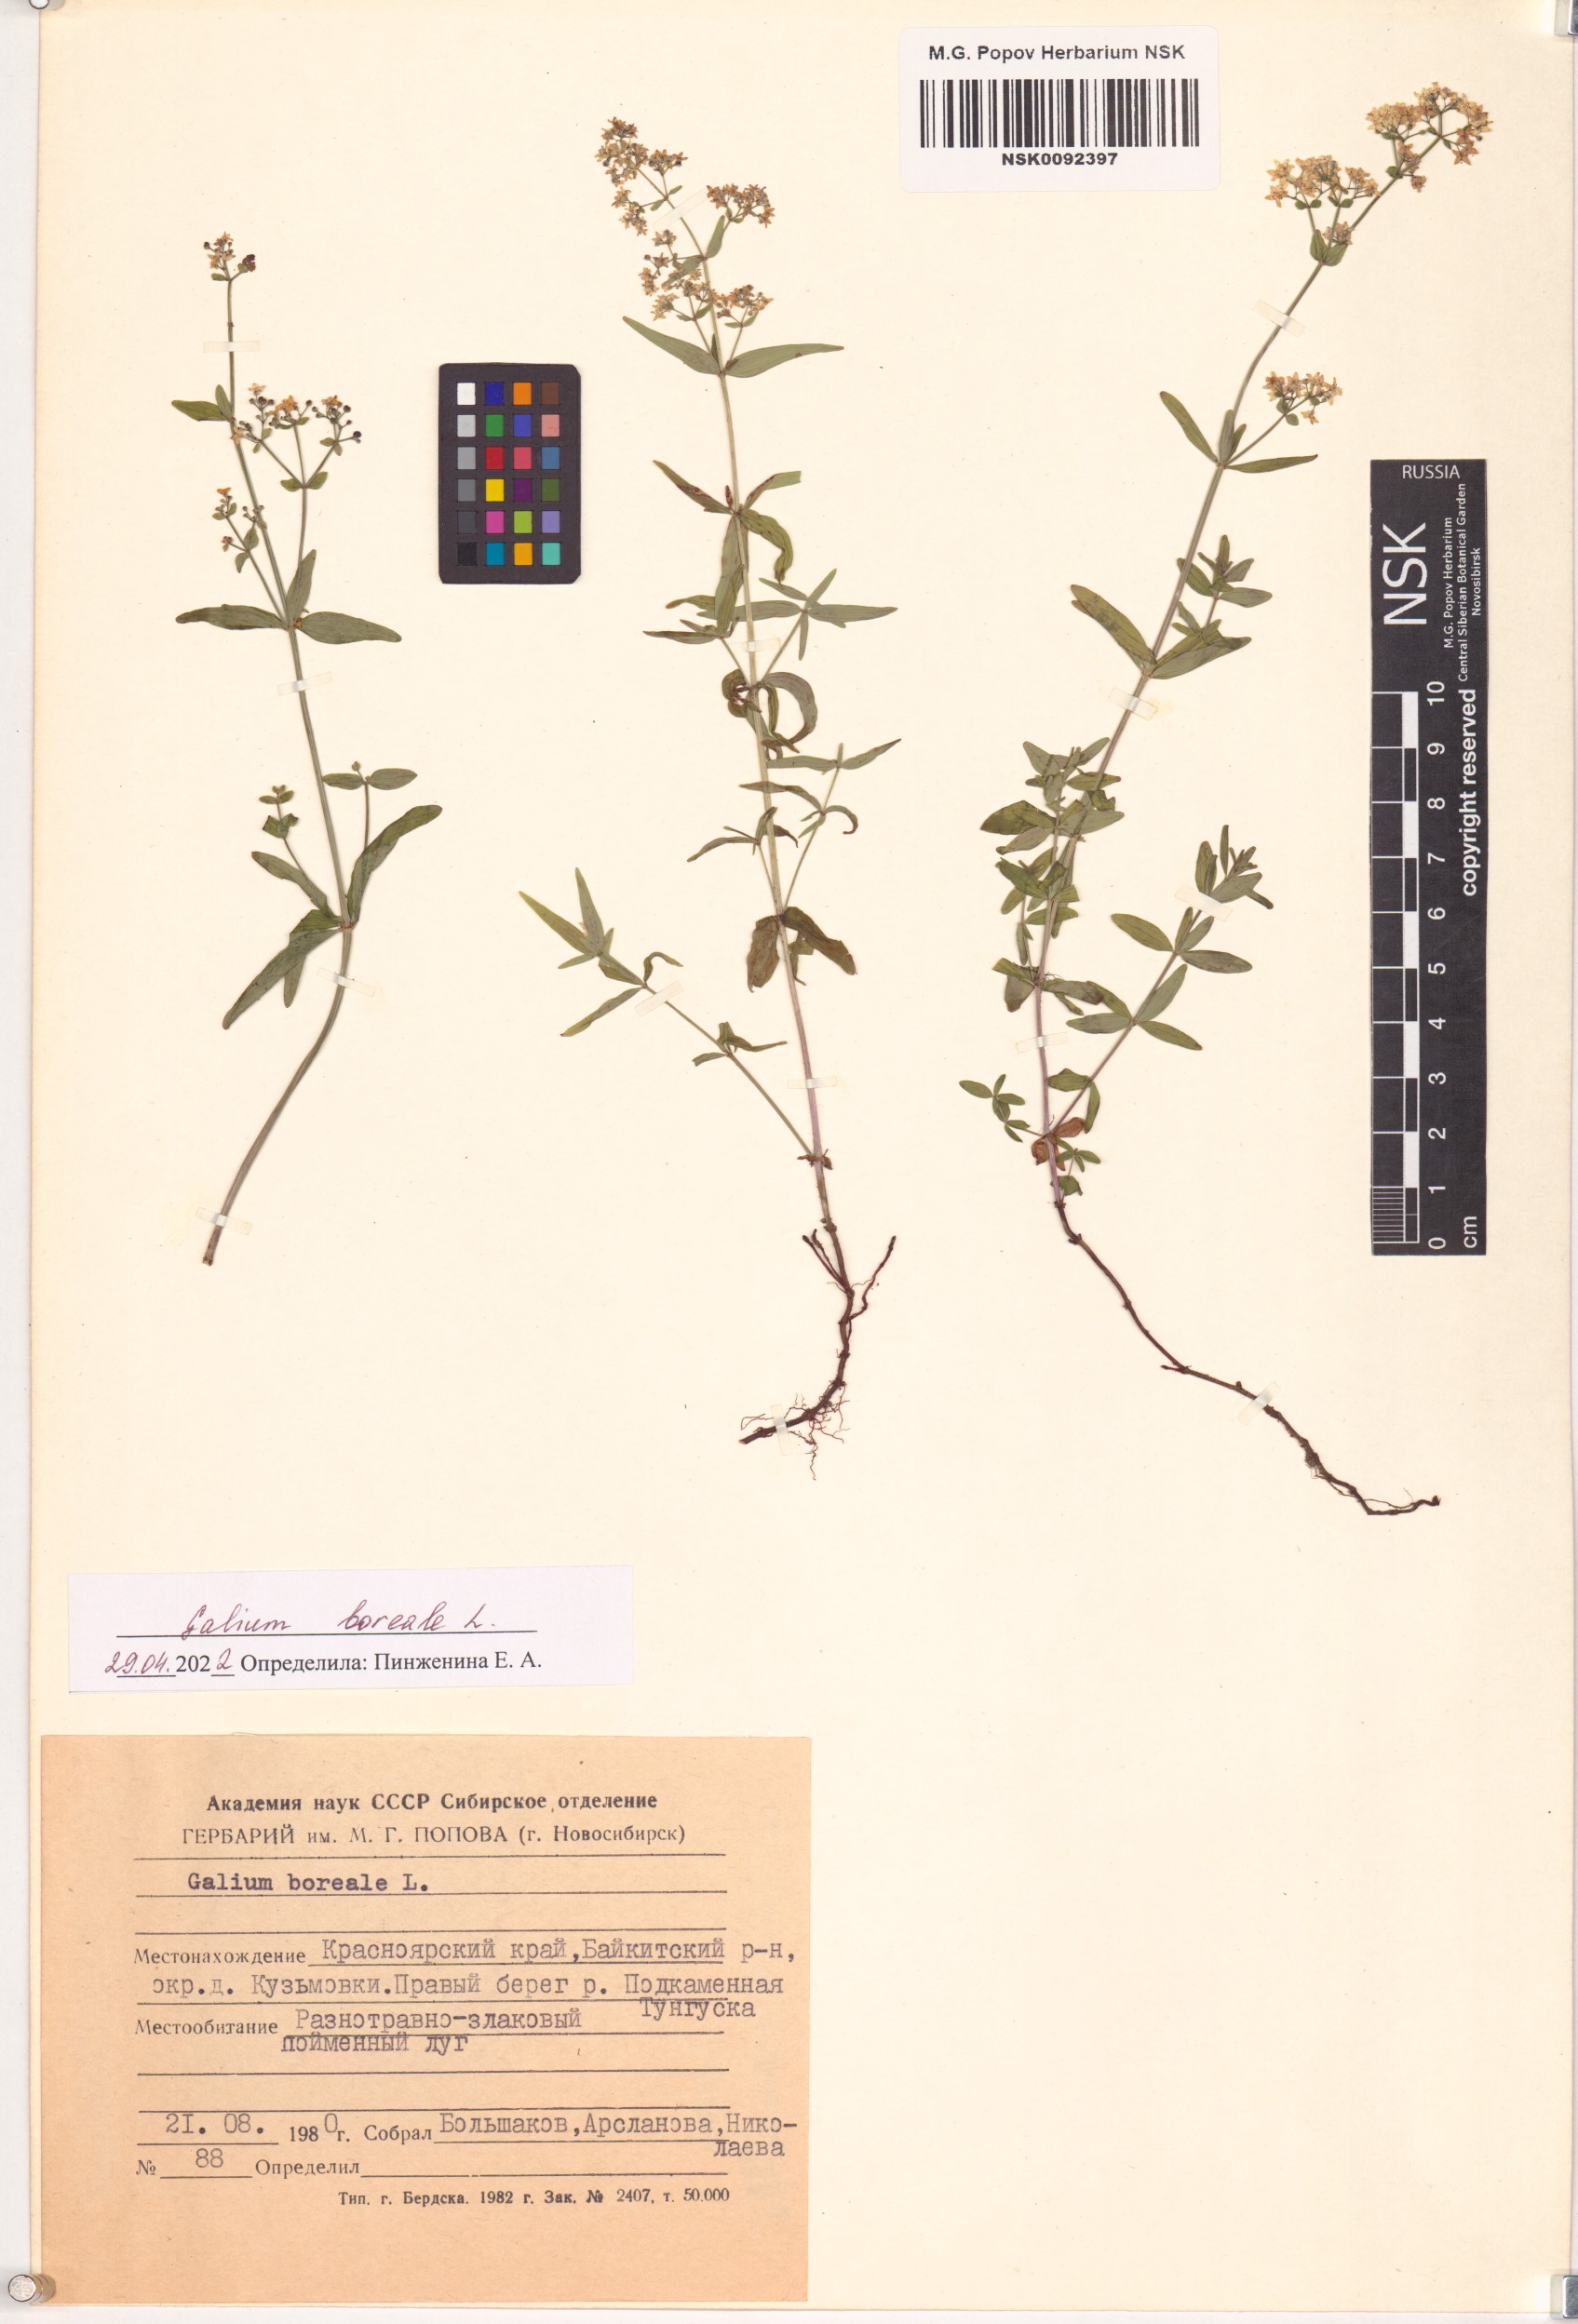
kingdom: Plantae
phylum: Tracheophyta
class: Magnoliopsida
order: Gentianales
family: Rubiaceae
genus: Galium
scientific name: Galium boreale
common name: Northern bedstraw
